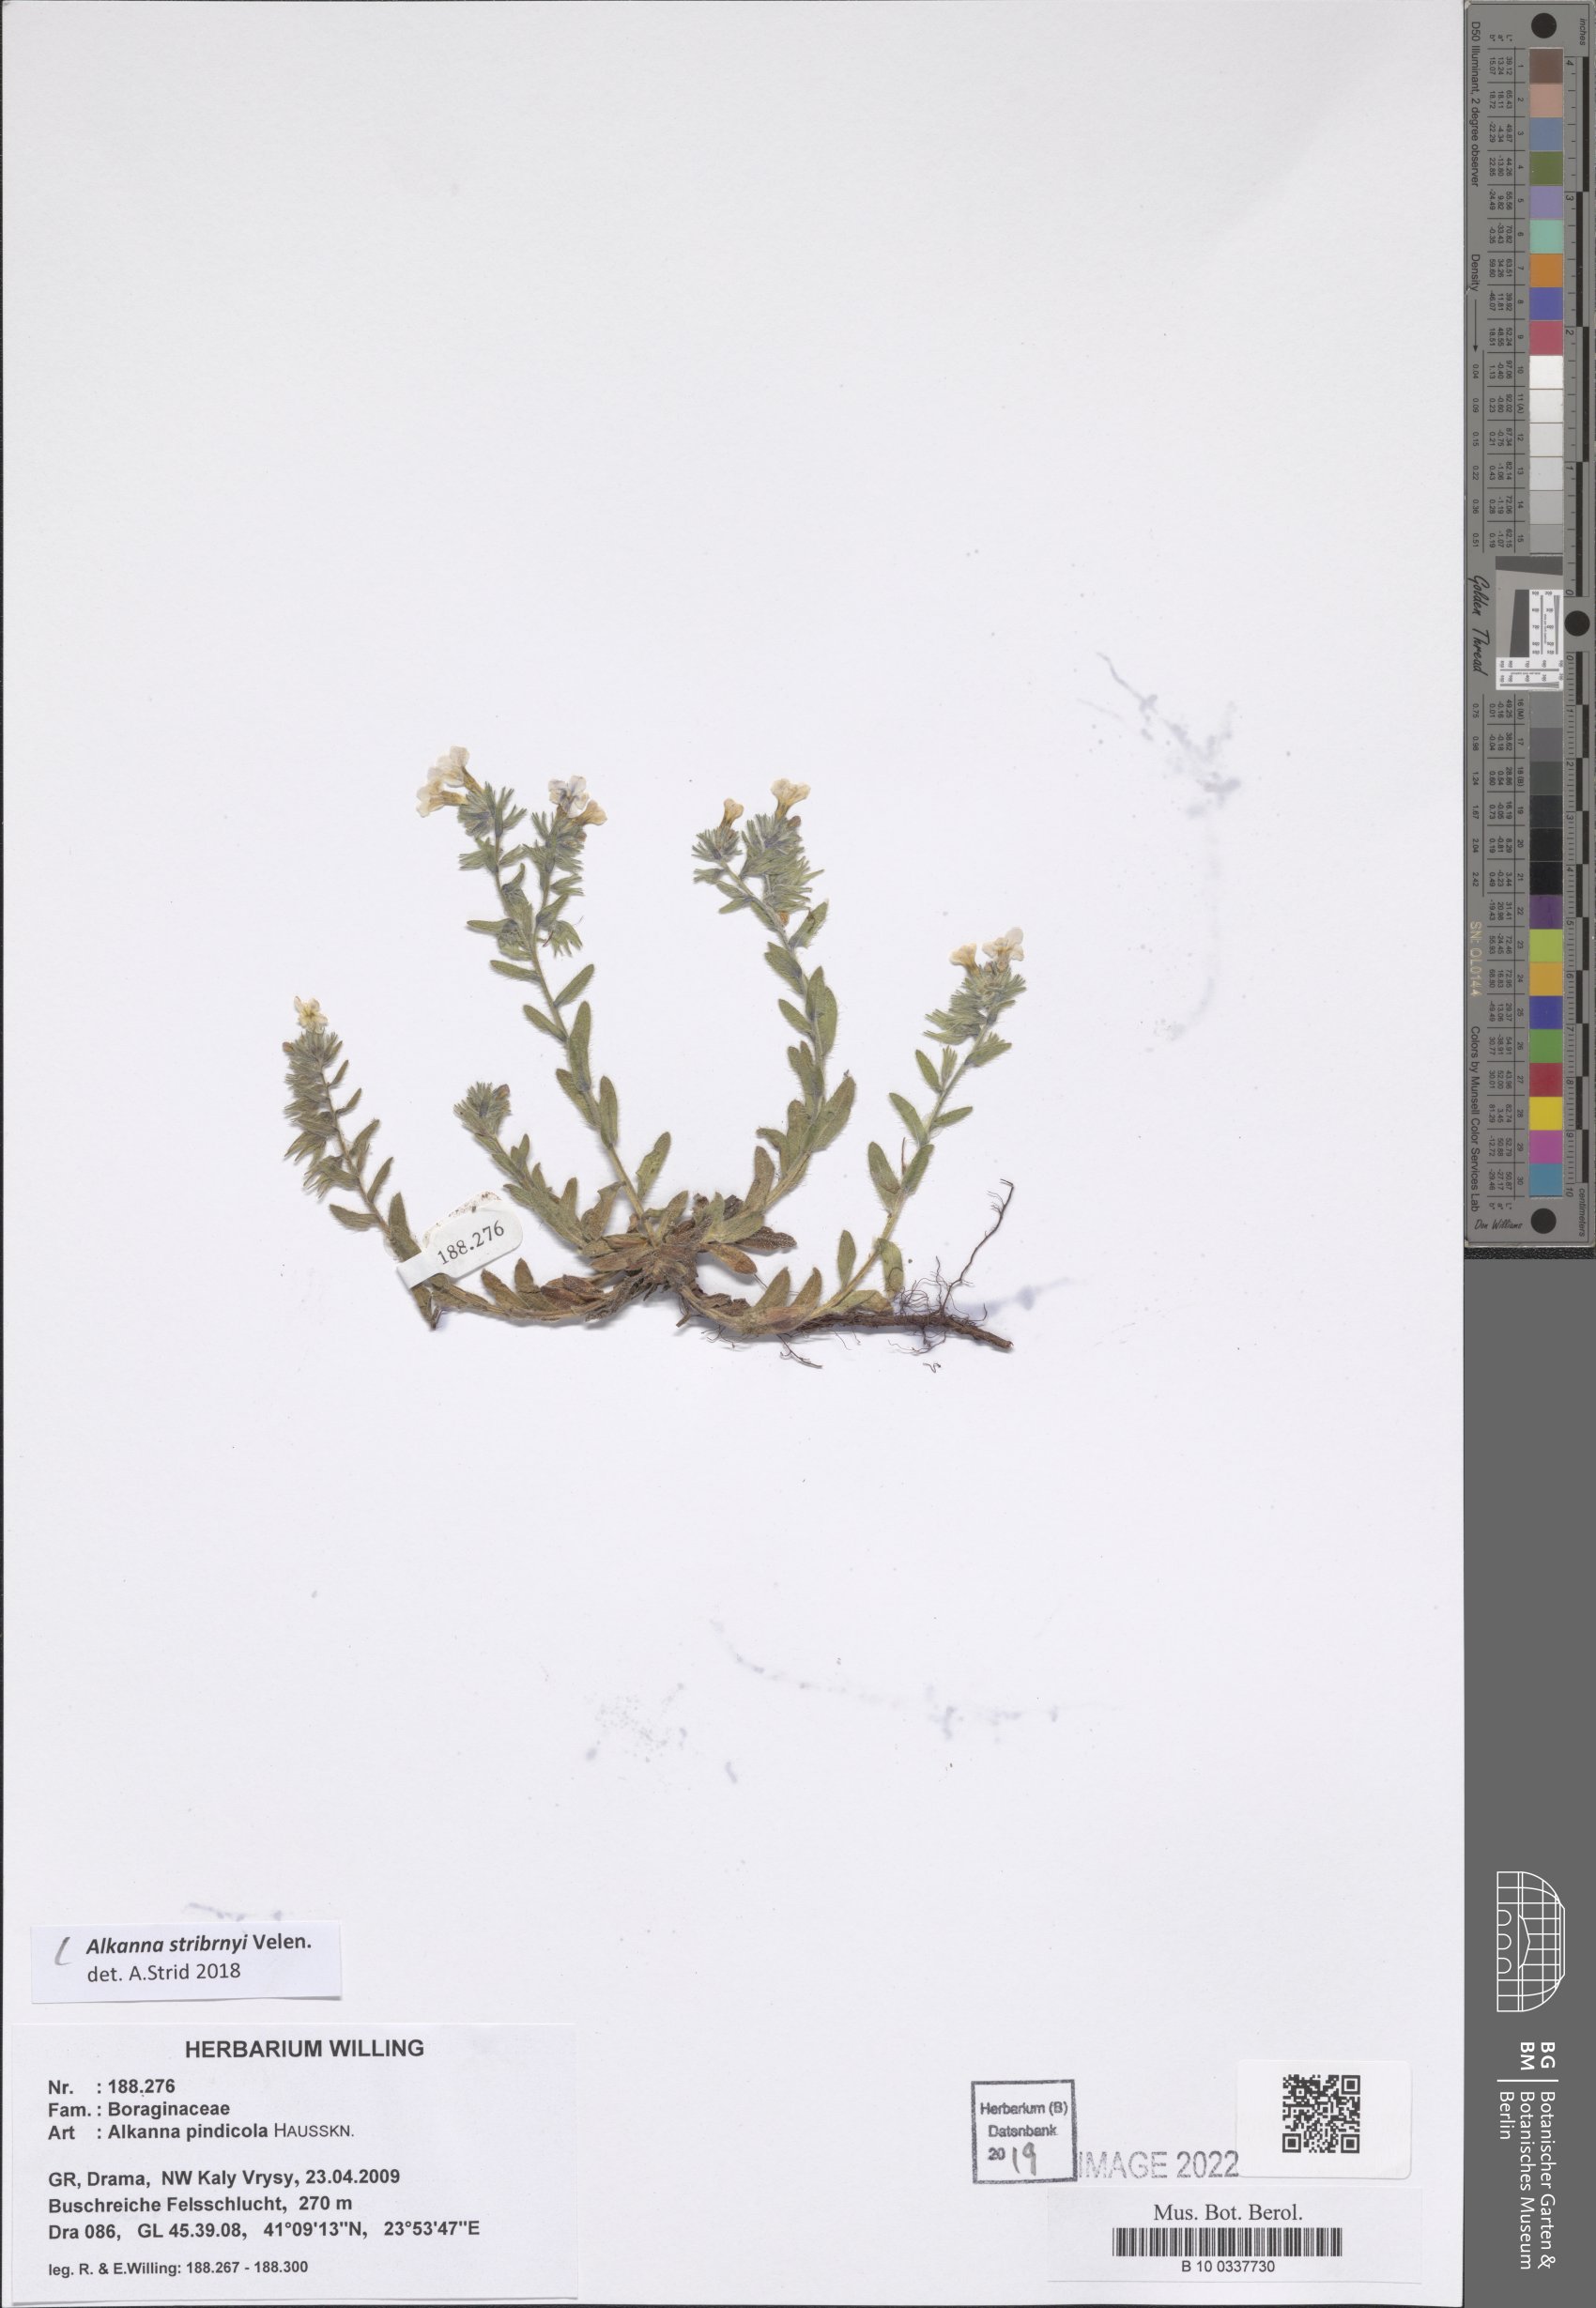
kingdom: Plantae
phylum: Tracheophyta
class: Magnoliopsida
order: Boraginales
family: Boraginaceae
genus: Alkanna
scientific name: Alkanna stribrnyi
